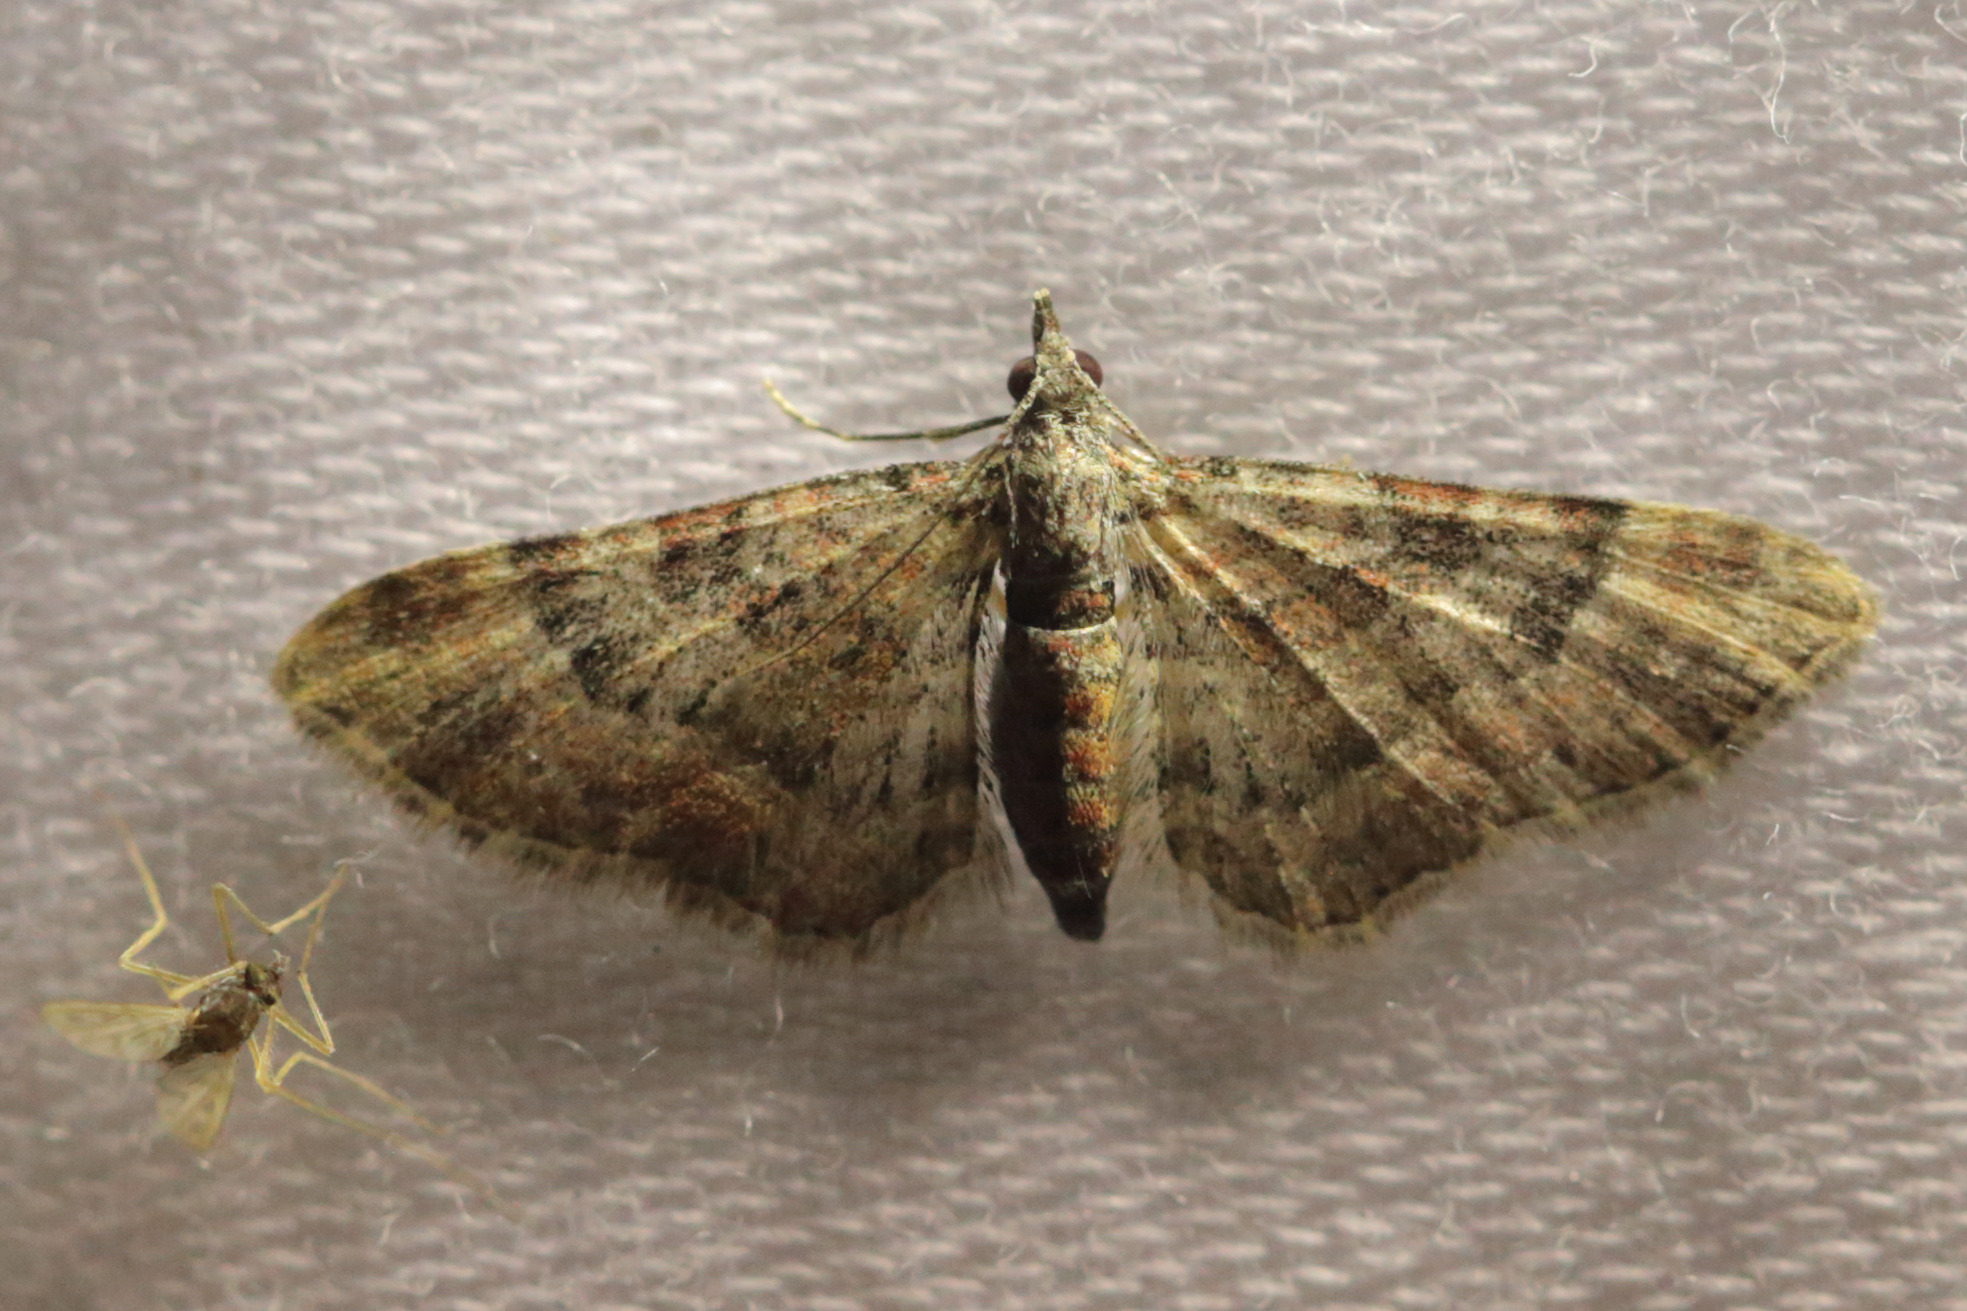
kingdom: Animalia
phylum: Arthropoda
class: Insecta
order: Lepidoptera
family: Geometridae
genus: Gymnoscelis
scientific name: Gymnoscelis rufifasciata
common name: Double-striped pug
